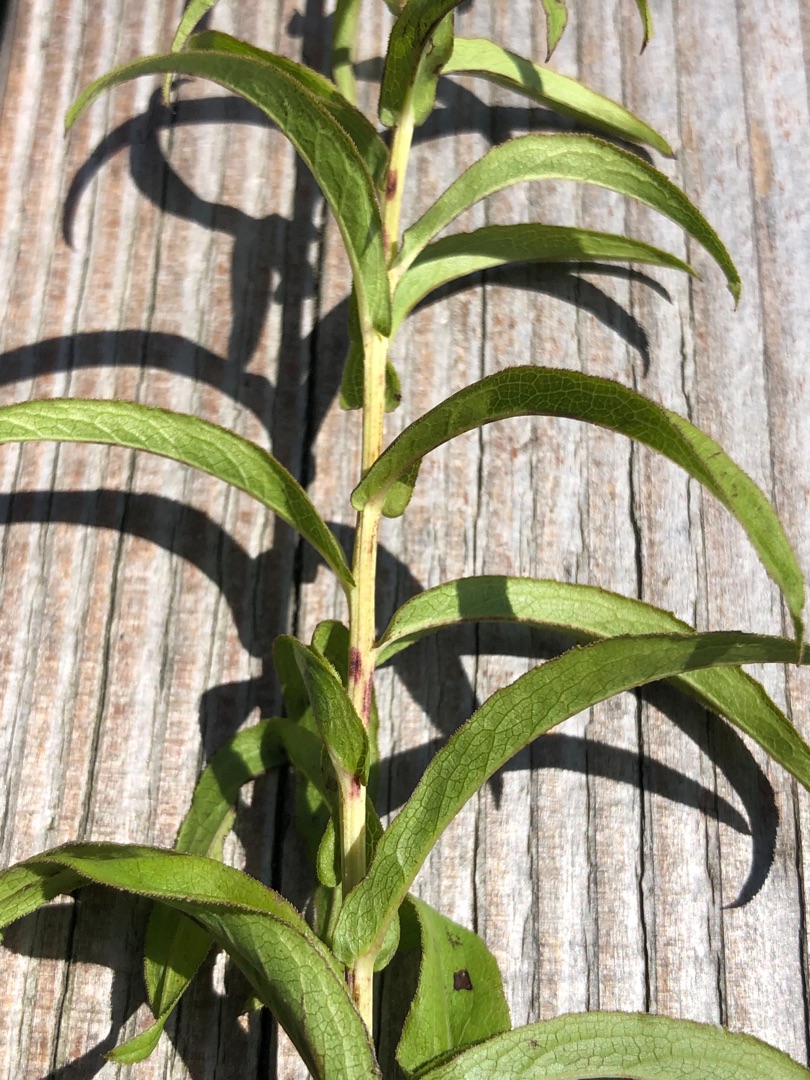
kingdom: Plantae
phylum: Tracheophyta
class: Magnoliopsida
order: Asterales
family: Asteraceae
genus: Pentanema
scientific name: Pentanema salicinum
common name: Pile-alant
